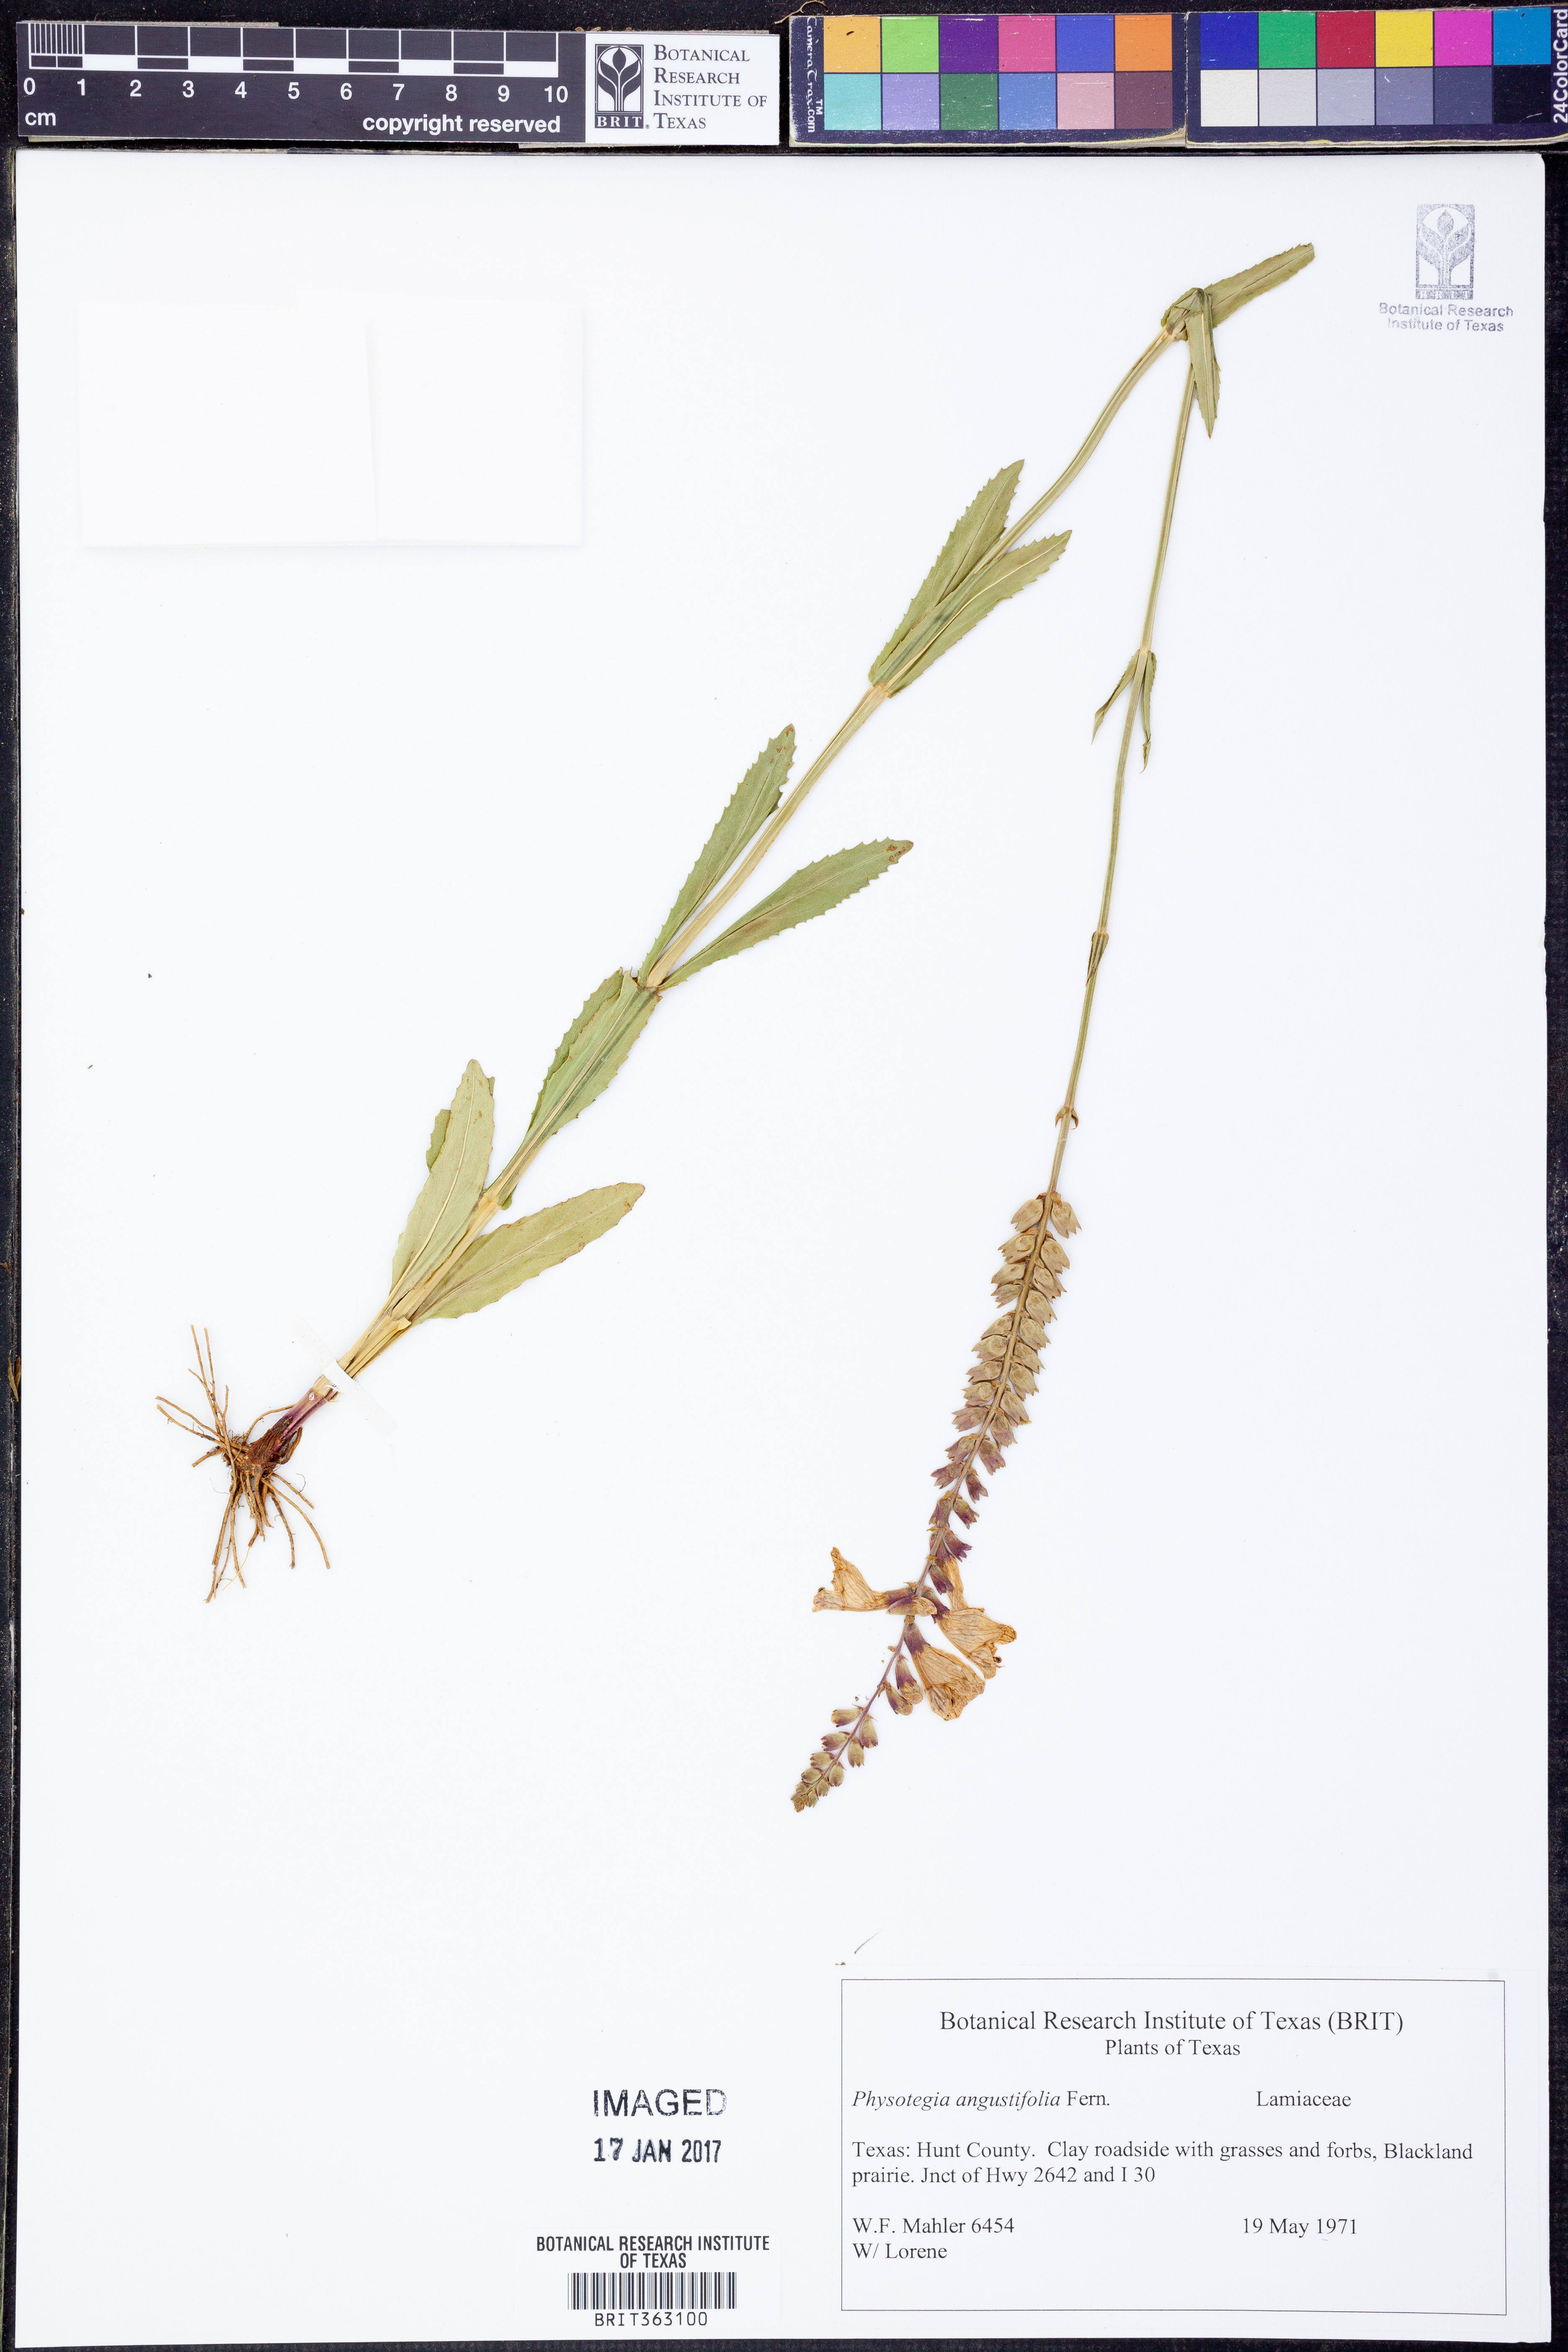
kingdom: Plantae
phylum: Tracheophyta
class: Magnoliopsida
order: Lamiales
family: Lamiaceae
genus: Physostegia
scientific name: Physostegia angustifolia
